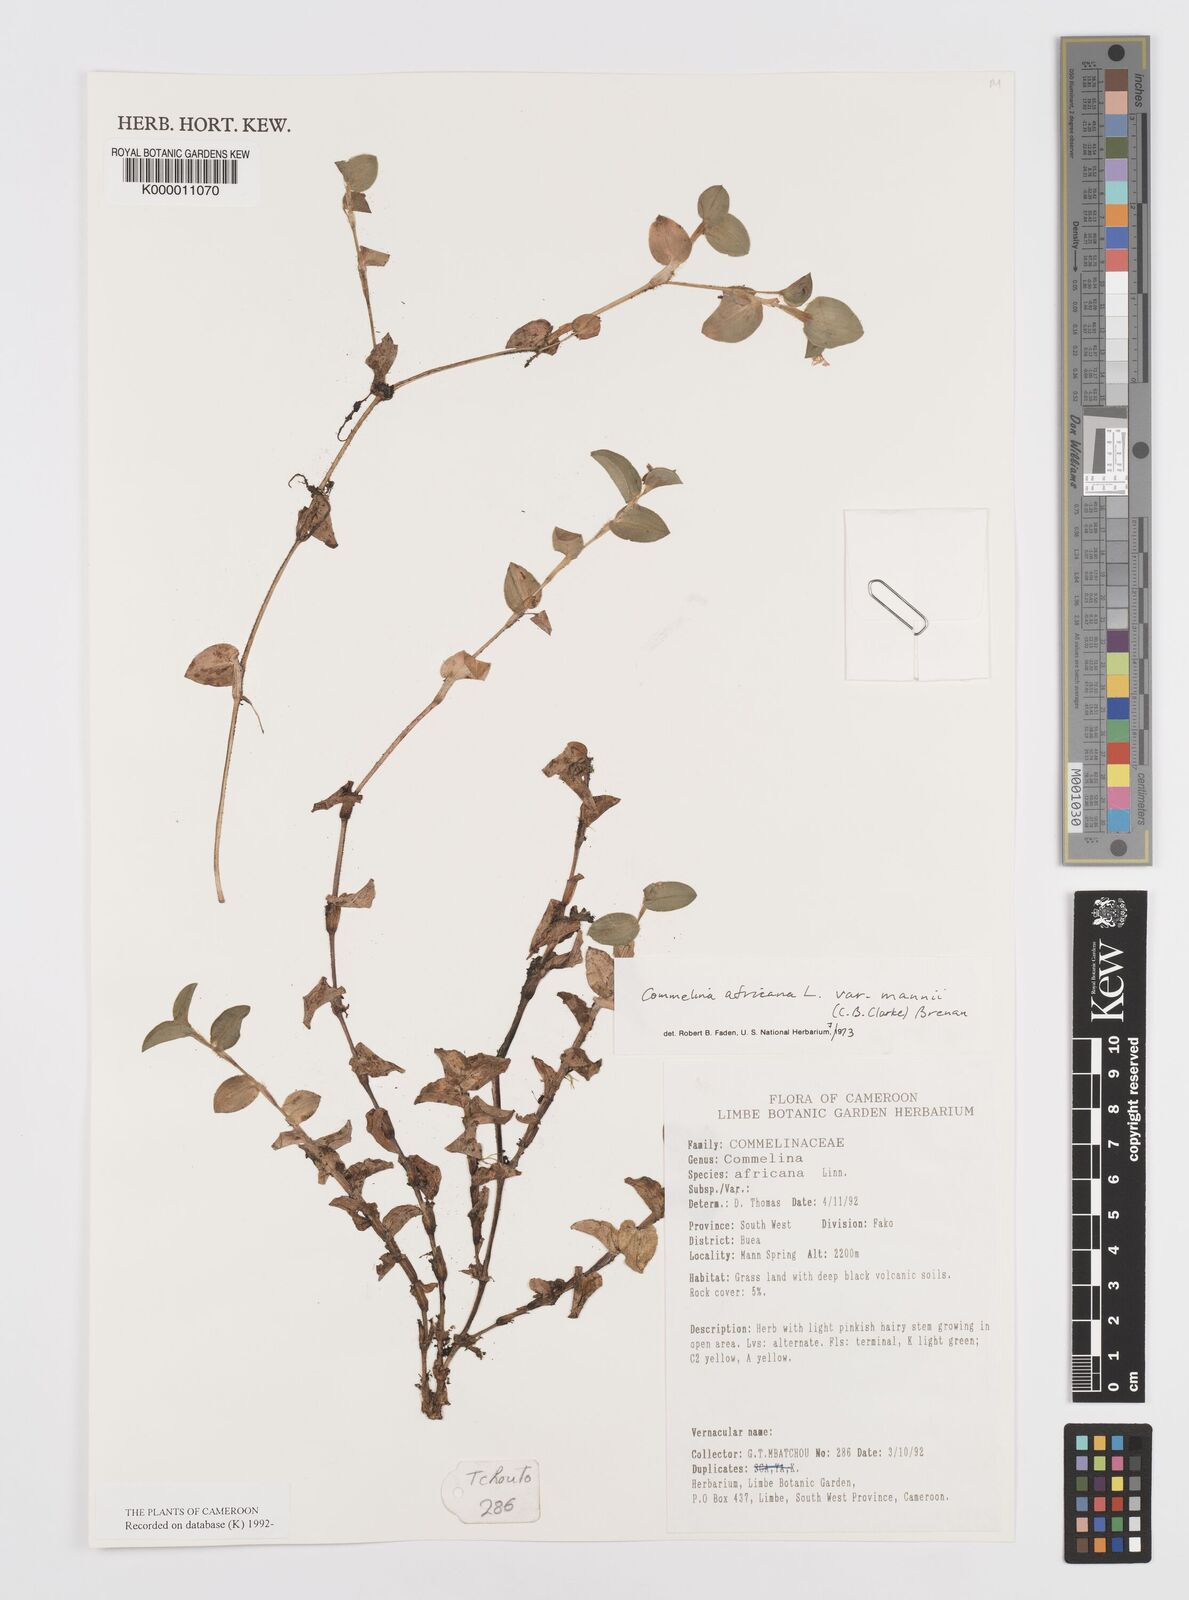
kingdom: Plantae
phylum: Tracheophyta
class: Liliopsida
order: Commelinales
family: Commelinaceae
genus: Commelina
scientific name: Commelina africana
